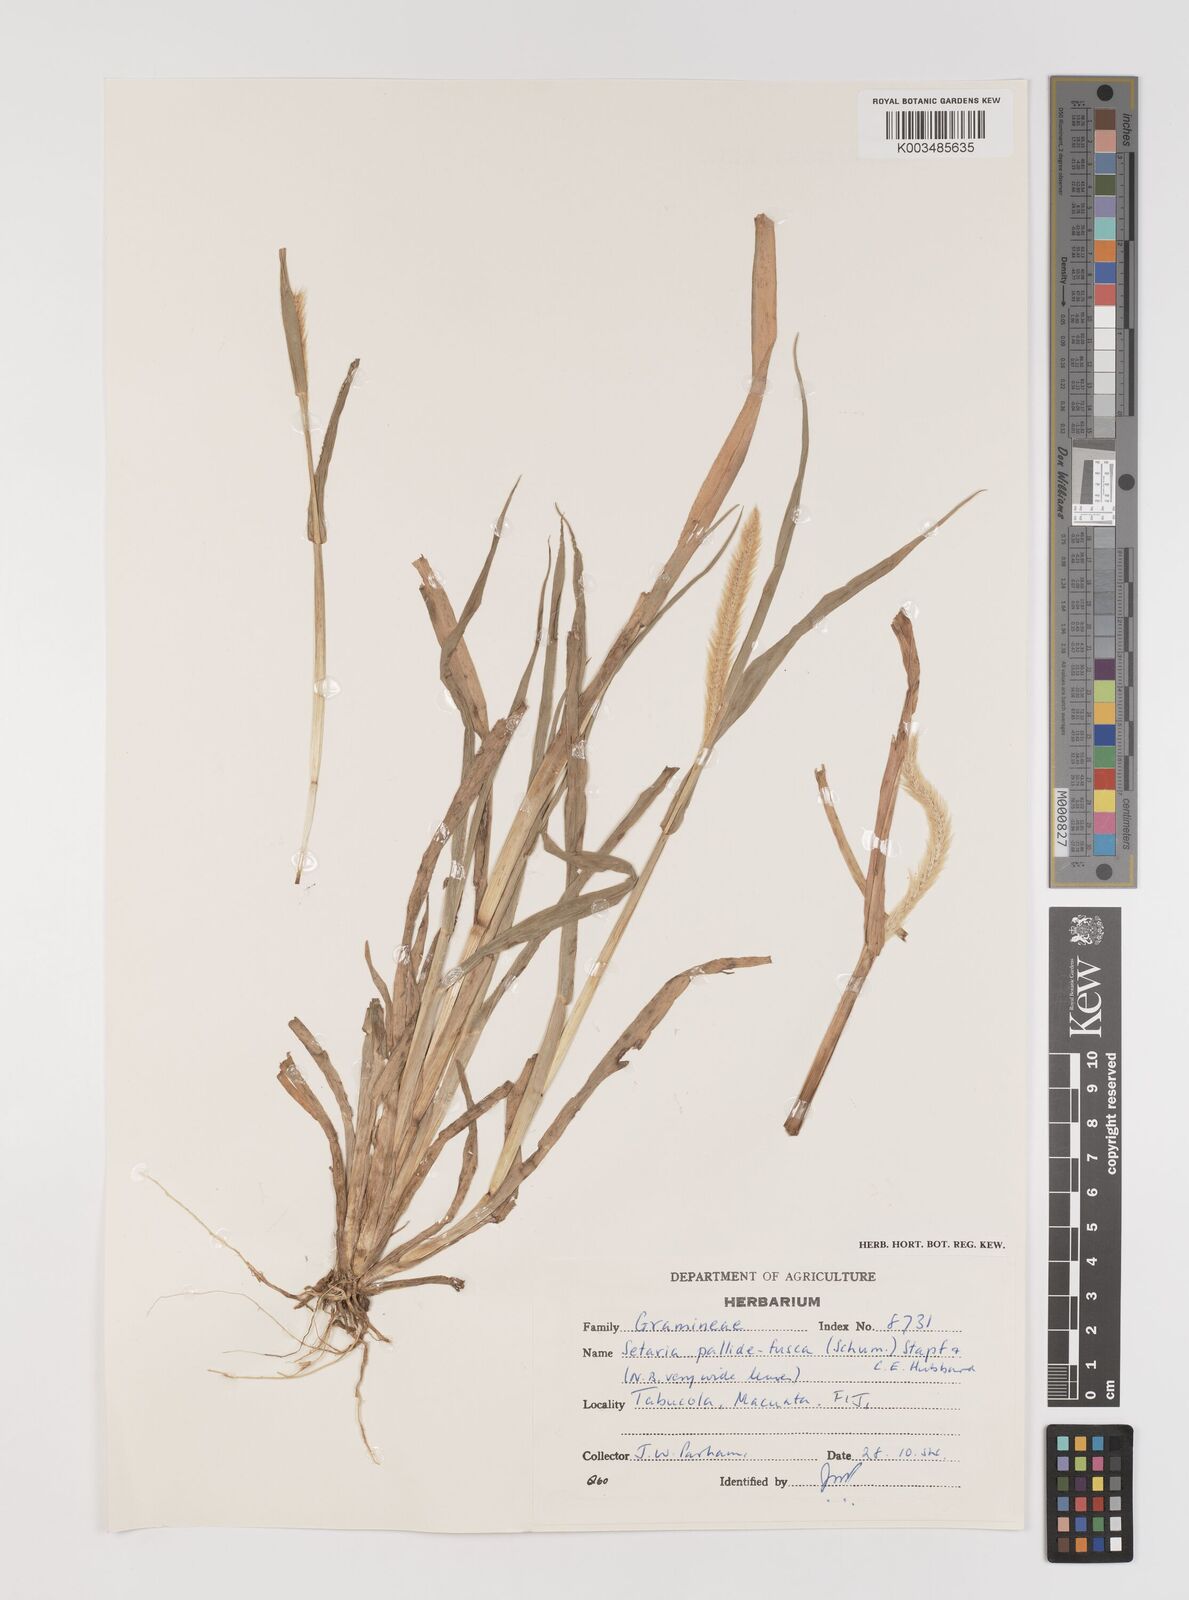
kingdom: Plantae
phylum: Tracheophyta
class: Liliopsida
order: Poales
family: Poaceae
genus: Setaria
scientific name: Setaria pumila
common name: Yellow bristle-grass
